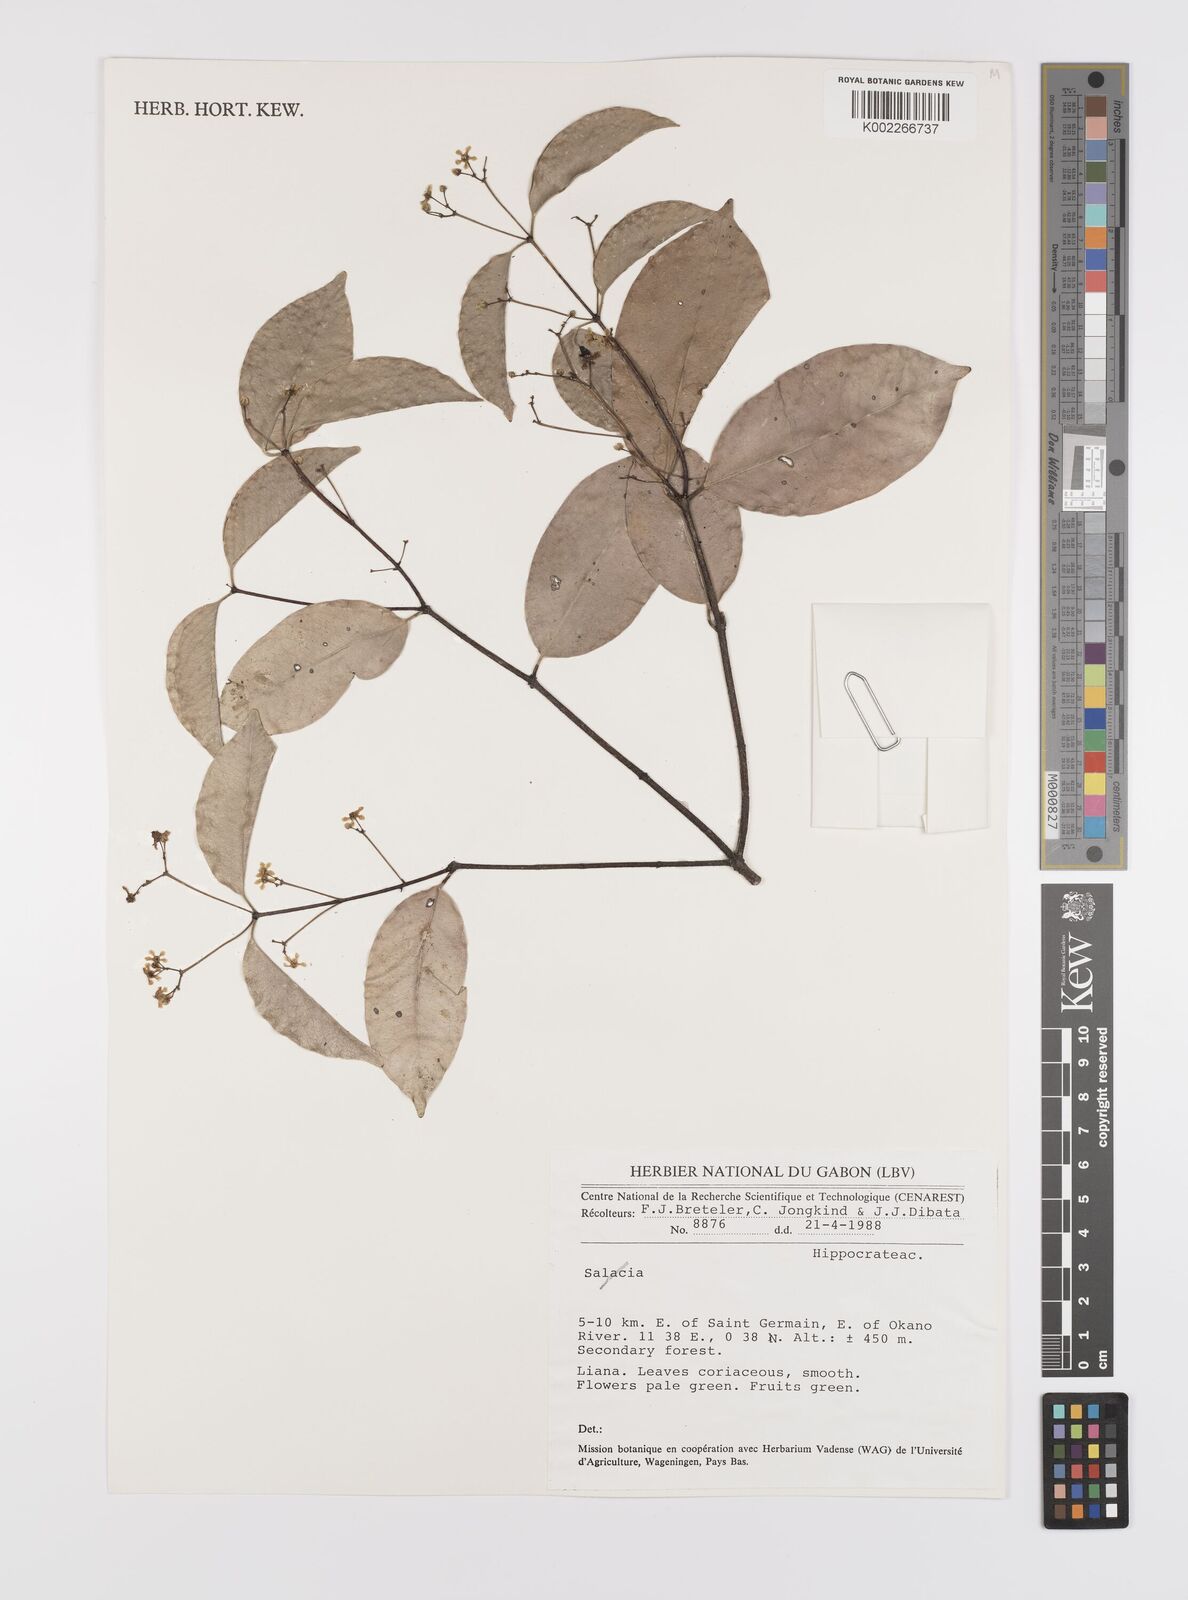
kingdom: Plantae
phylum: Tracheophyta
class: Magnoliopsida
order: Celastrales
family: Celastraceae
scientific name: Celastraceae
